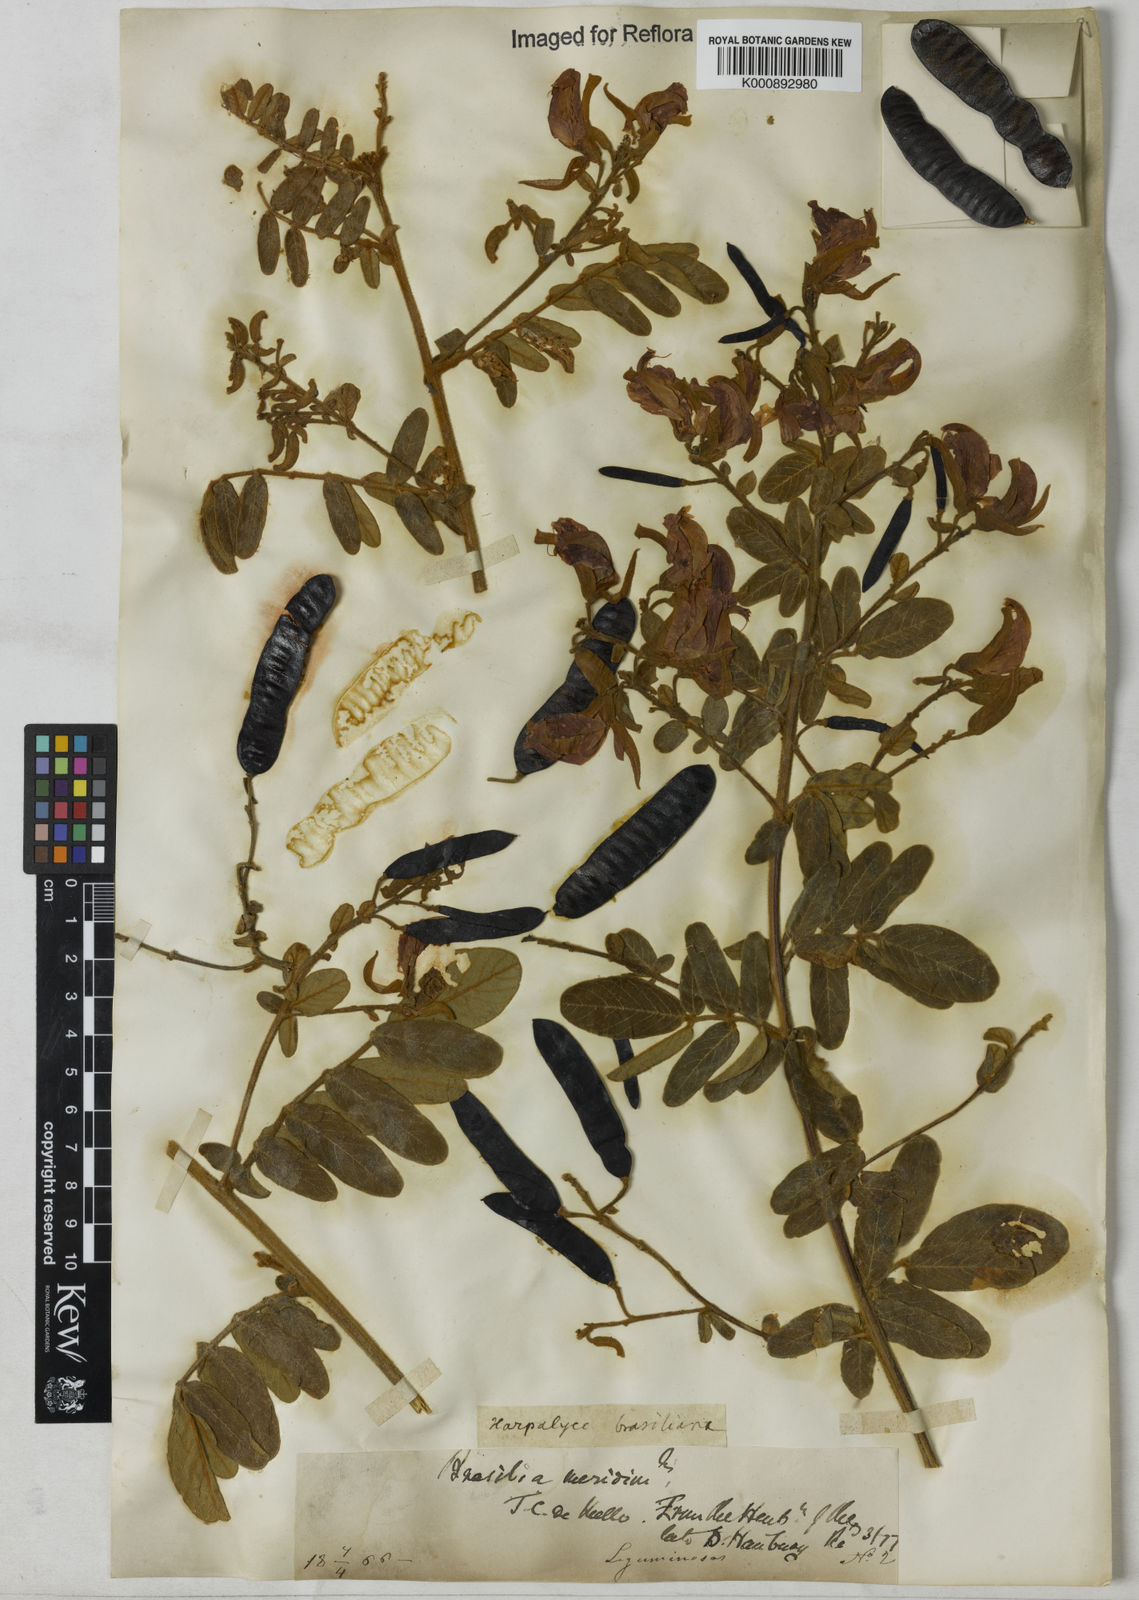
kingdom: Plantae
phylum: Tracheophyta
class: Magnoliopsida
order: Fabales
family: Fabaceae
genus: Harpalyce
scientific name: Harpalyce brasiliana
